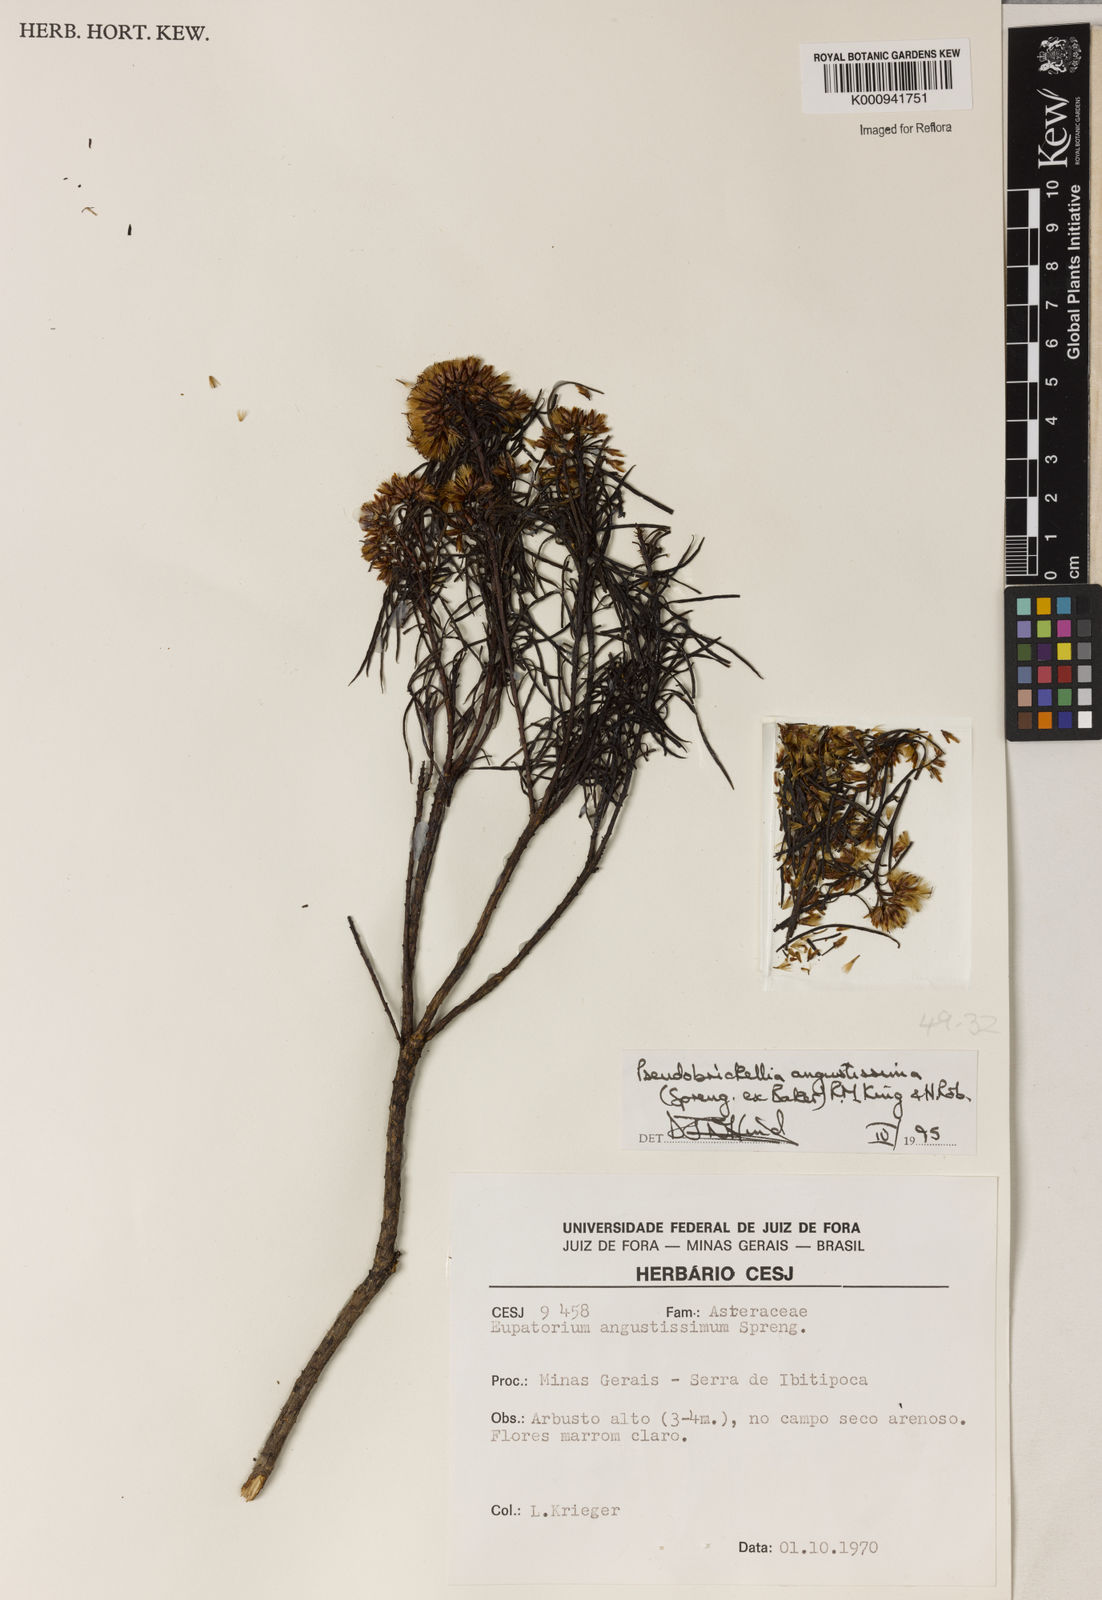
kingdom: Plantae
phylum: Tracheophyta
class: Magnoliopsida
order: Asterales
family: Asteraceae
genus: Pseudobrickellia
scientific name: Pseudobrickellia angustissima
